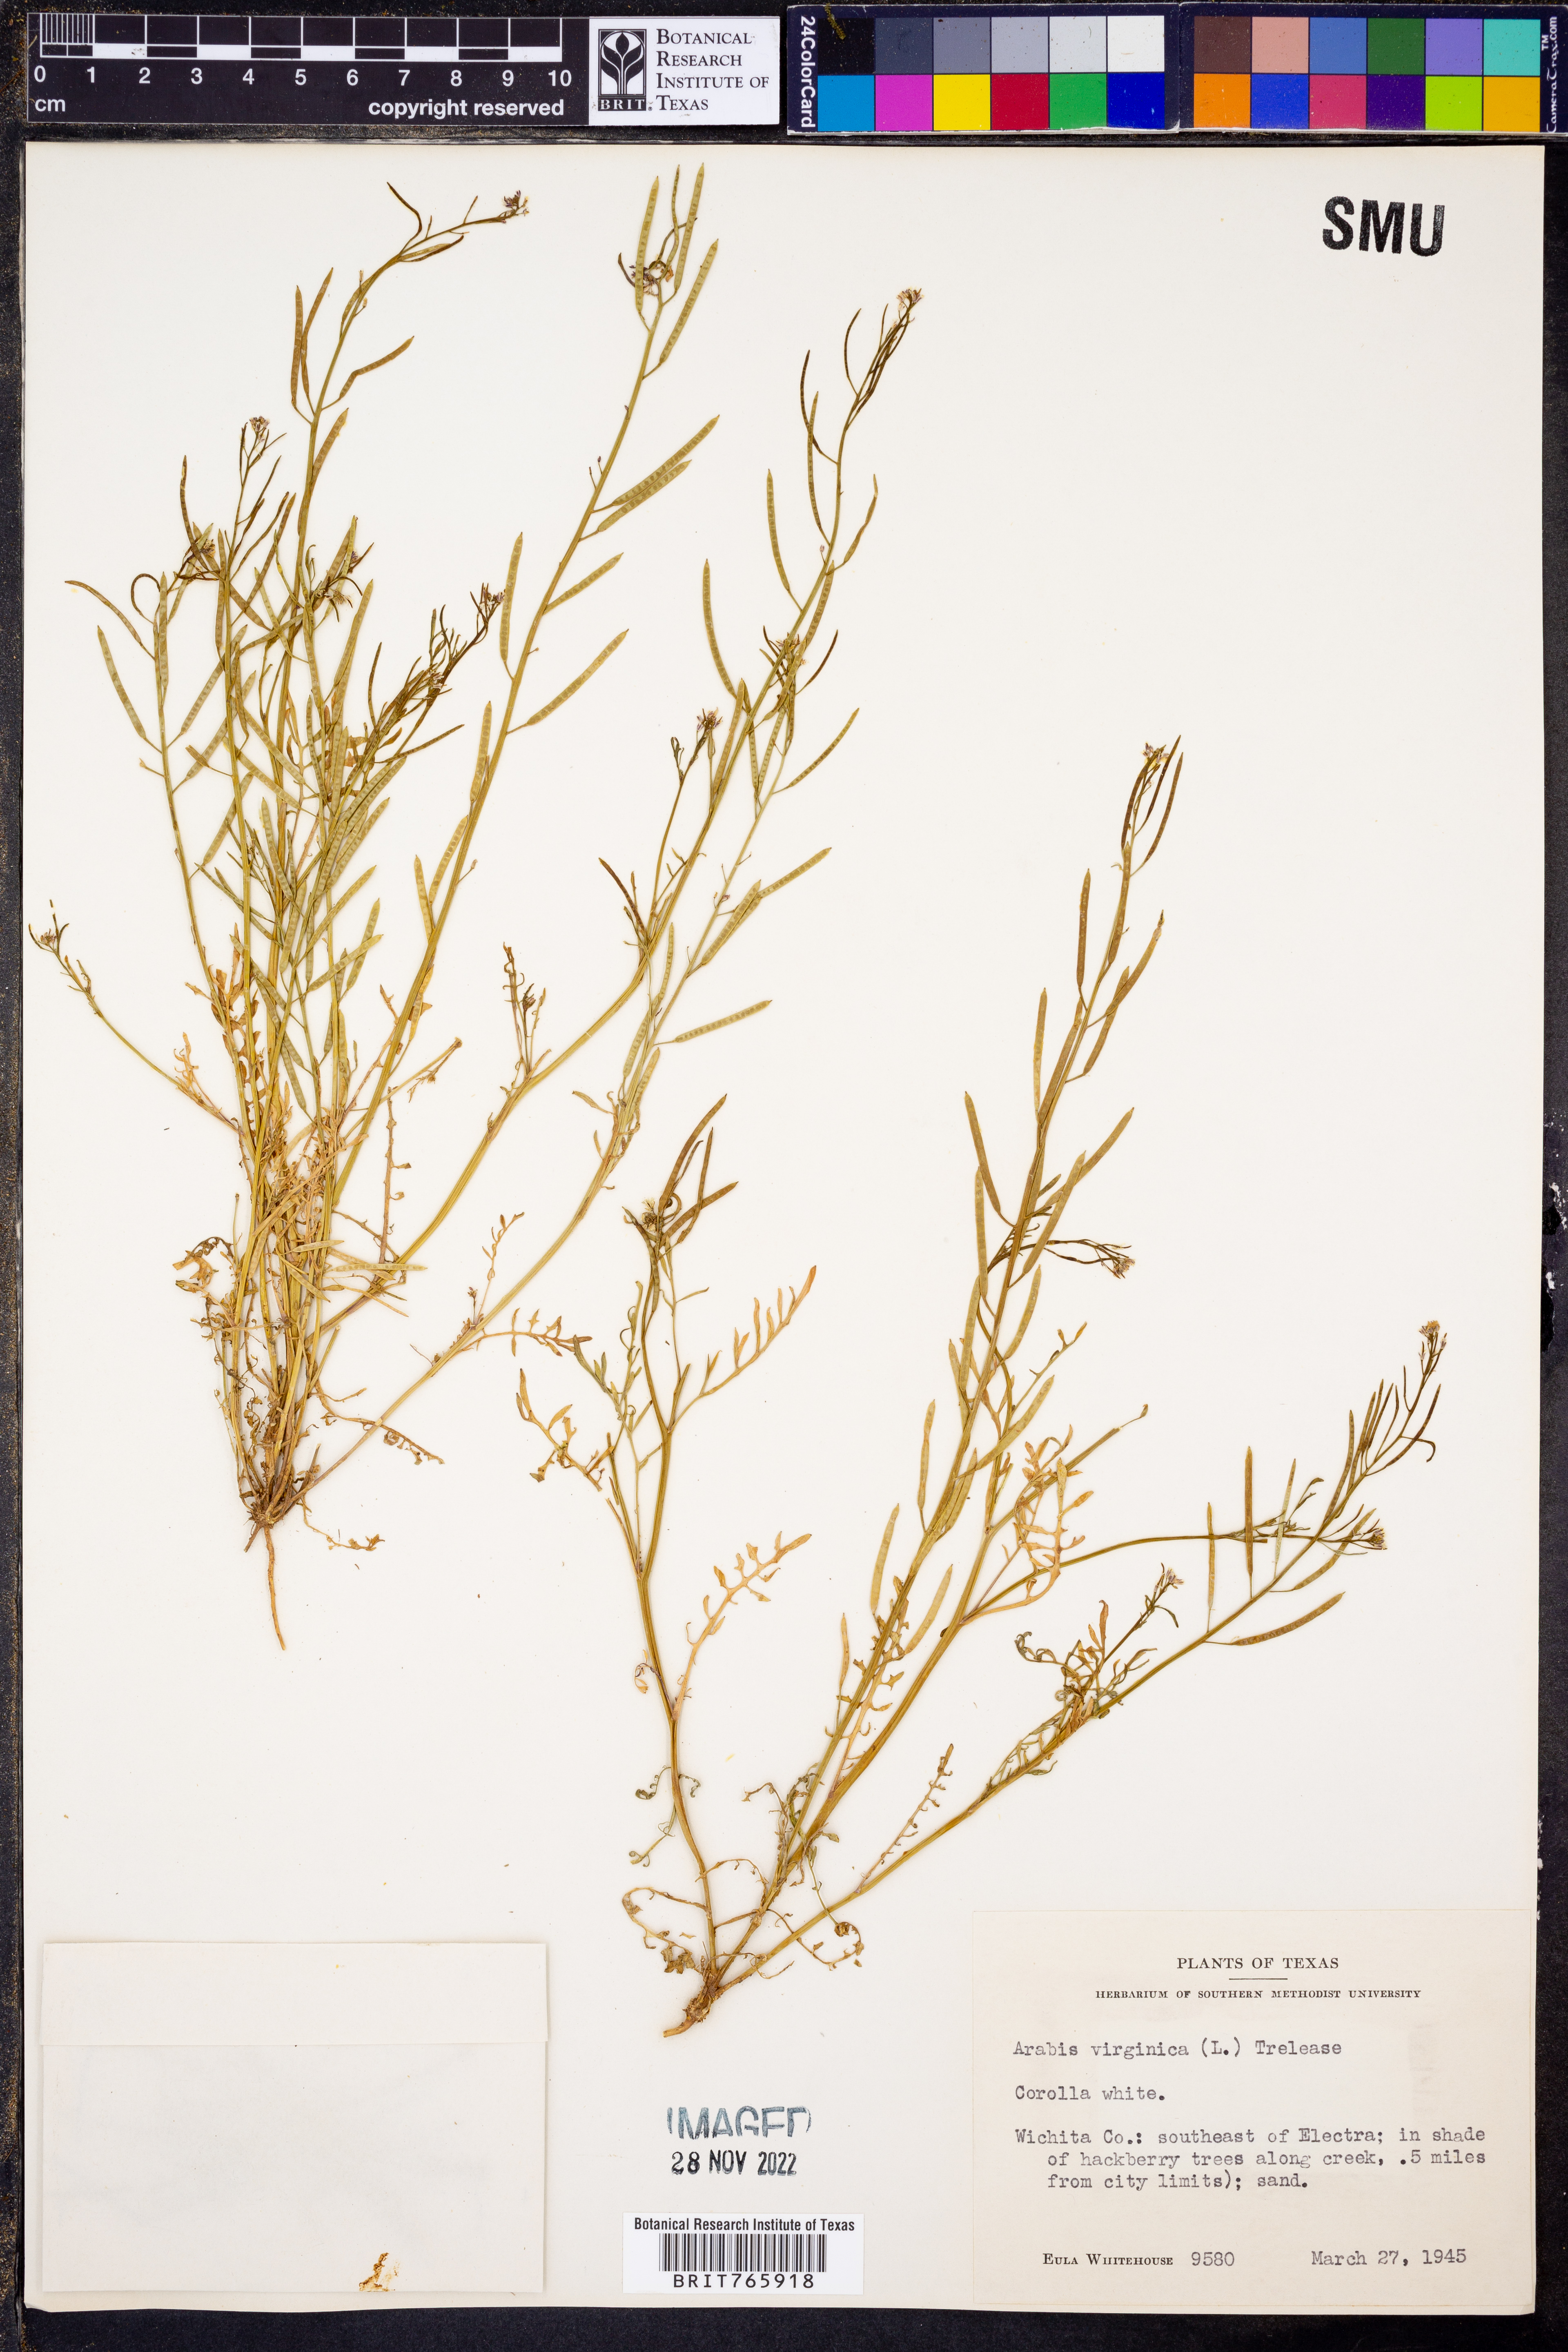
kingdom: Plantae
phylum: Tracheophyta
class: Magnoliopsida
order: Brassicales
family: Brassicaceae
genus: Planodes
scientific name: Planodes virginicum
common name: Virginia cress
